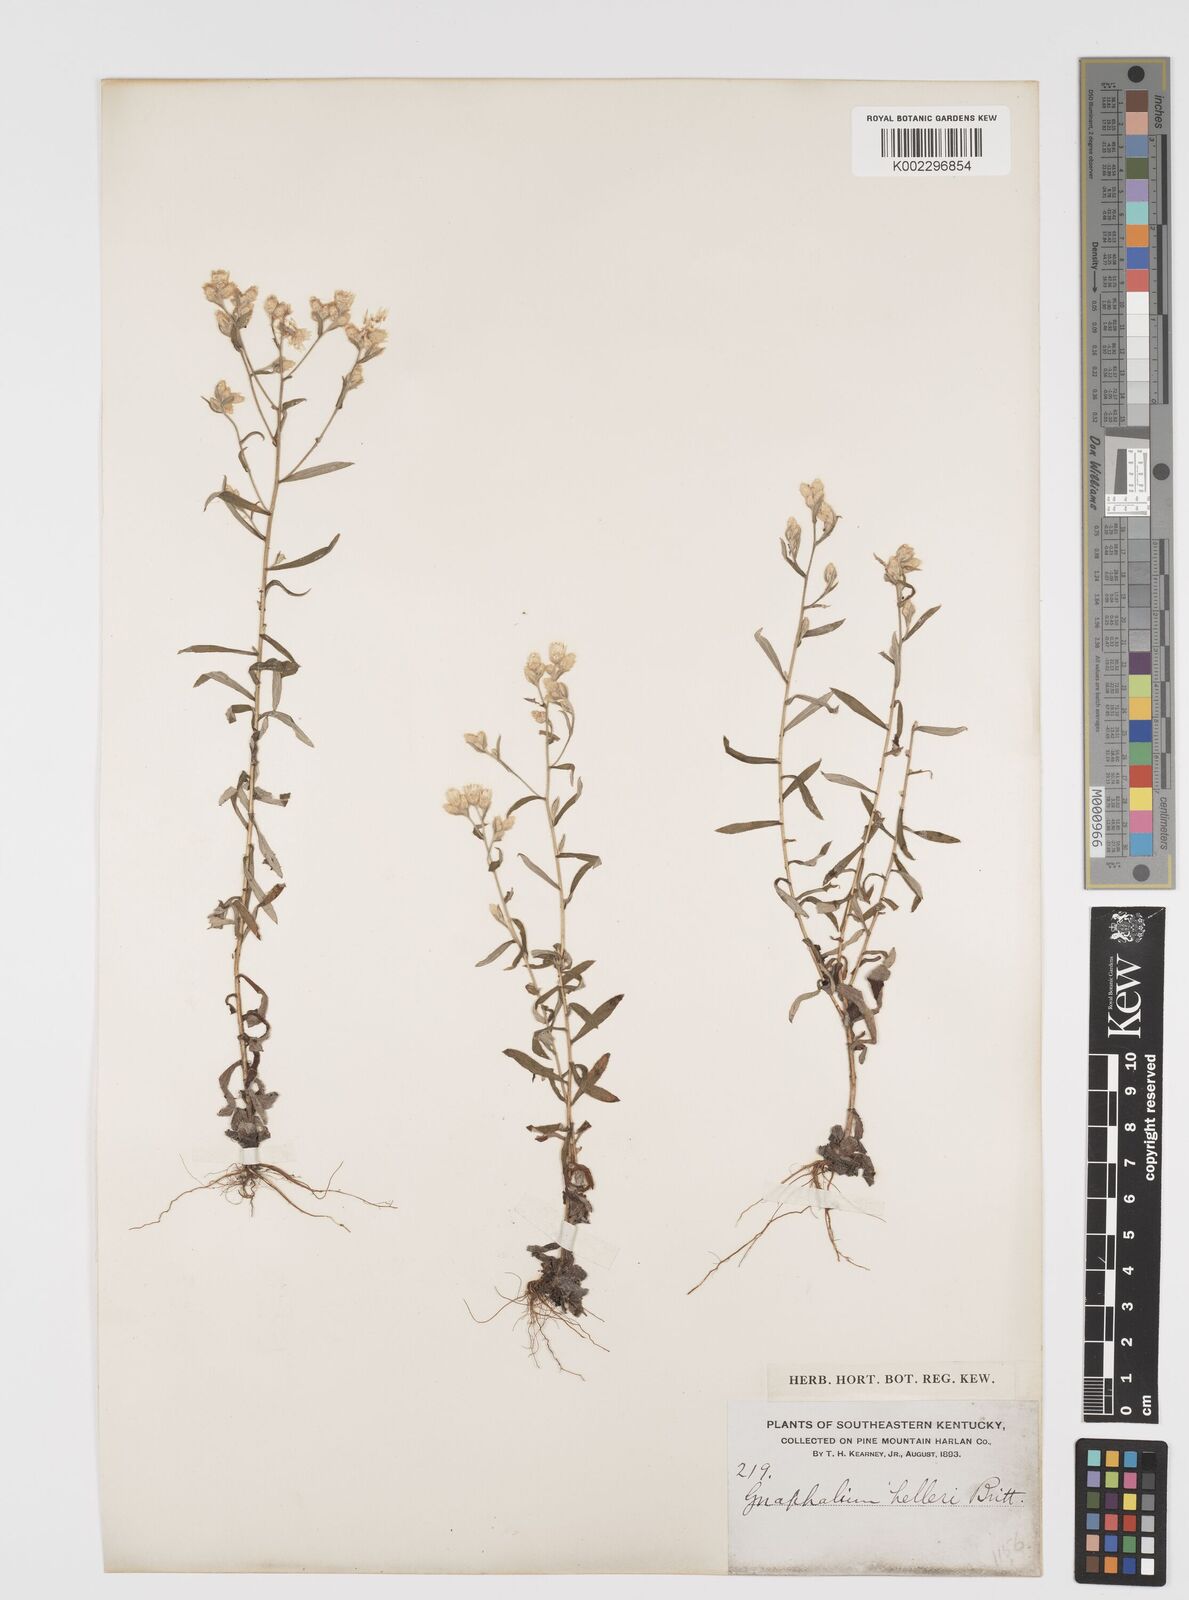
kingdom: Plantae
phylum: Tracheophyta
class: Magnoliopsida
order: Asterales
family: Asteraceae
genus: Pseudognaphalium
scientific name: Pseudognaphalium helleri
